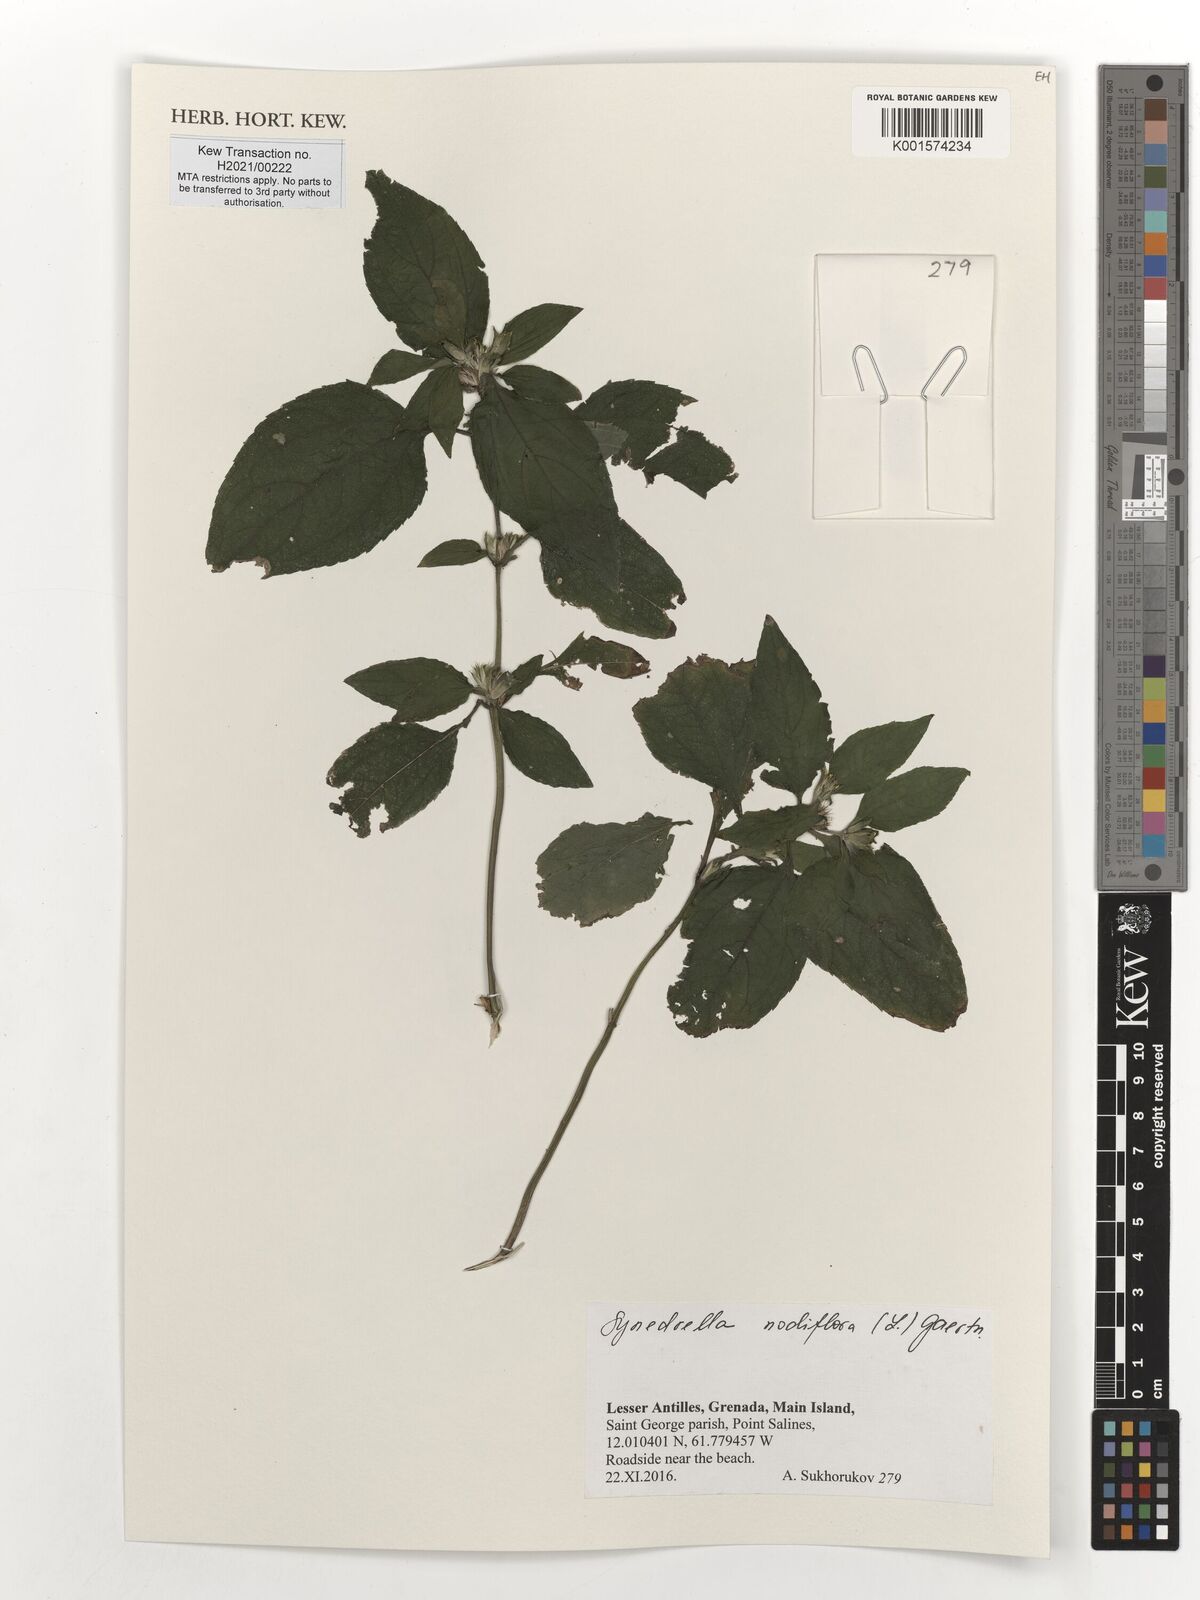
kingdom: Plantae
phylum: Tracheophyta
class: Magnoliopsida
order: Asterales
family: Asteraceae
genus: Synedrella
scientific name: Synedrella nodiflora
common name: Nodeweed
